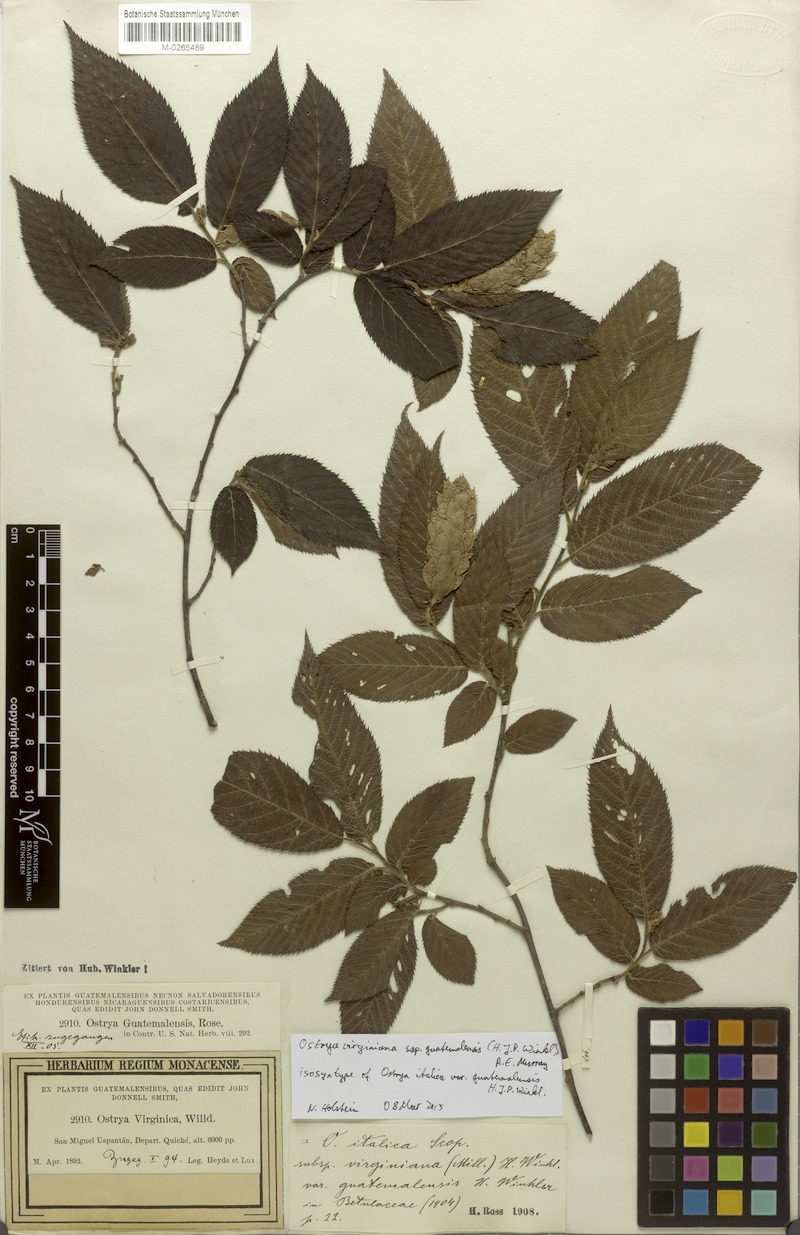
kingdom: Plantae
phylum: Tracheophyta
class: Magnoliopsida
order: Fagales
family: Betulaceae
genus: Ostrya
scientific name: Ostrya virginiana
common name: Ironwood
